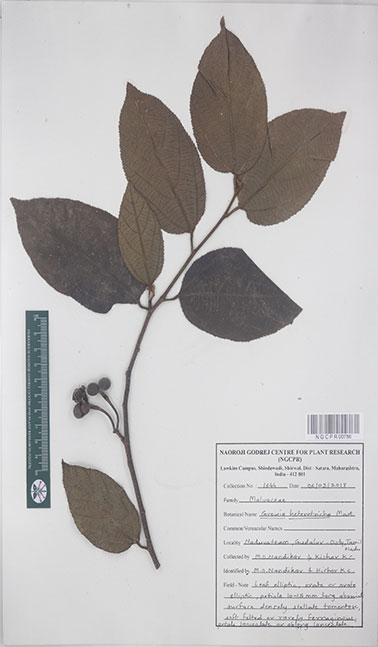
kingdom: Plantae
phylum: Tracheophyta
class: Magnoliopsida
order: Malvales
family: Malvaceae
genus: Grewia
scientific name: Grewia heterotricha
